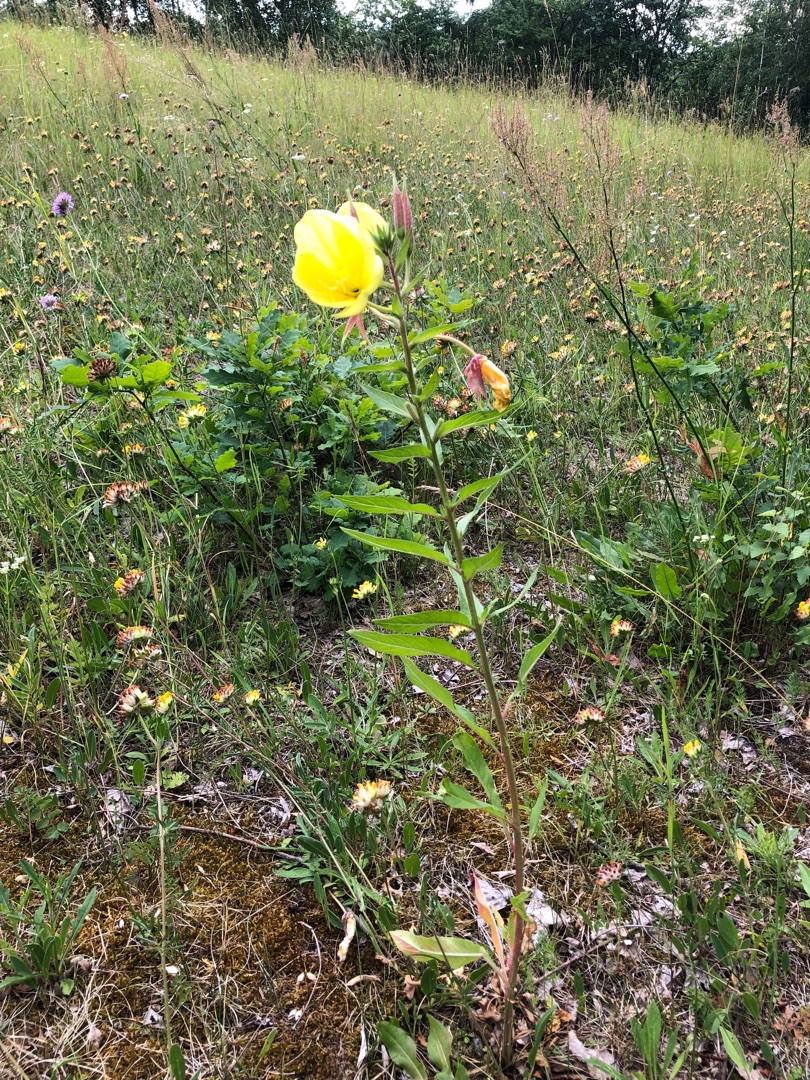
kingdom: Plantae
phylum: Tracheophyta
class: Magnoliopsida
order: Myrtales
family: Onagraceae
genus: Oenothera
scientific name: Oenothera glazioviana
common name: Kæmpe-natlys
